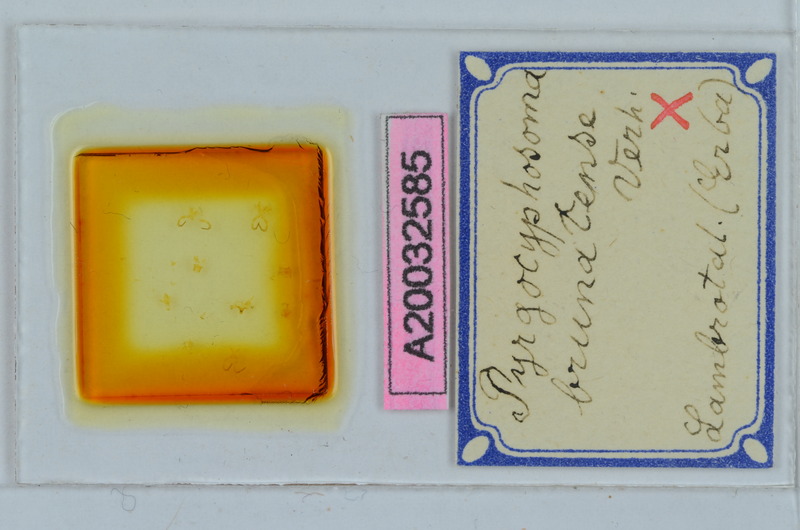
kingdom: Animalia
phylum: Arthropoda
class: Diplopoda
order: Chordeumatida
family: Craspedosomatidae
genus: Pyrgocyphosoma
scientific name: Pyrgocyphosoma brunatense
